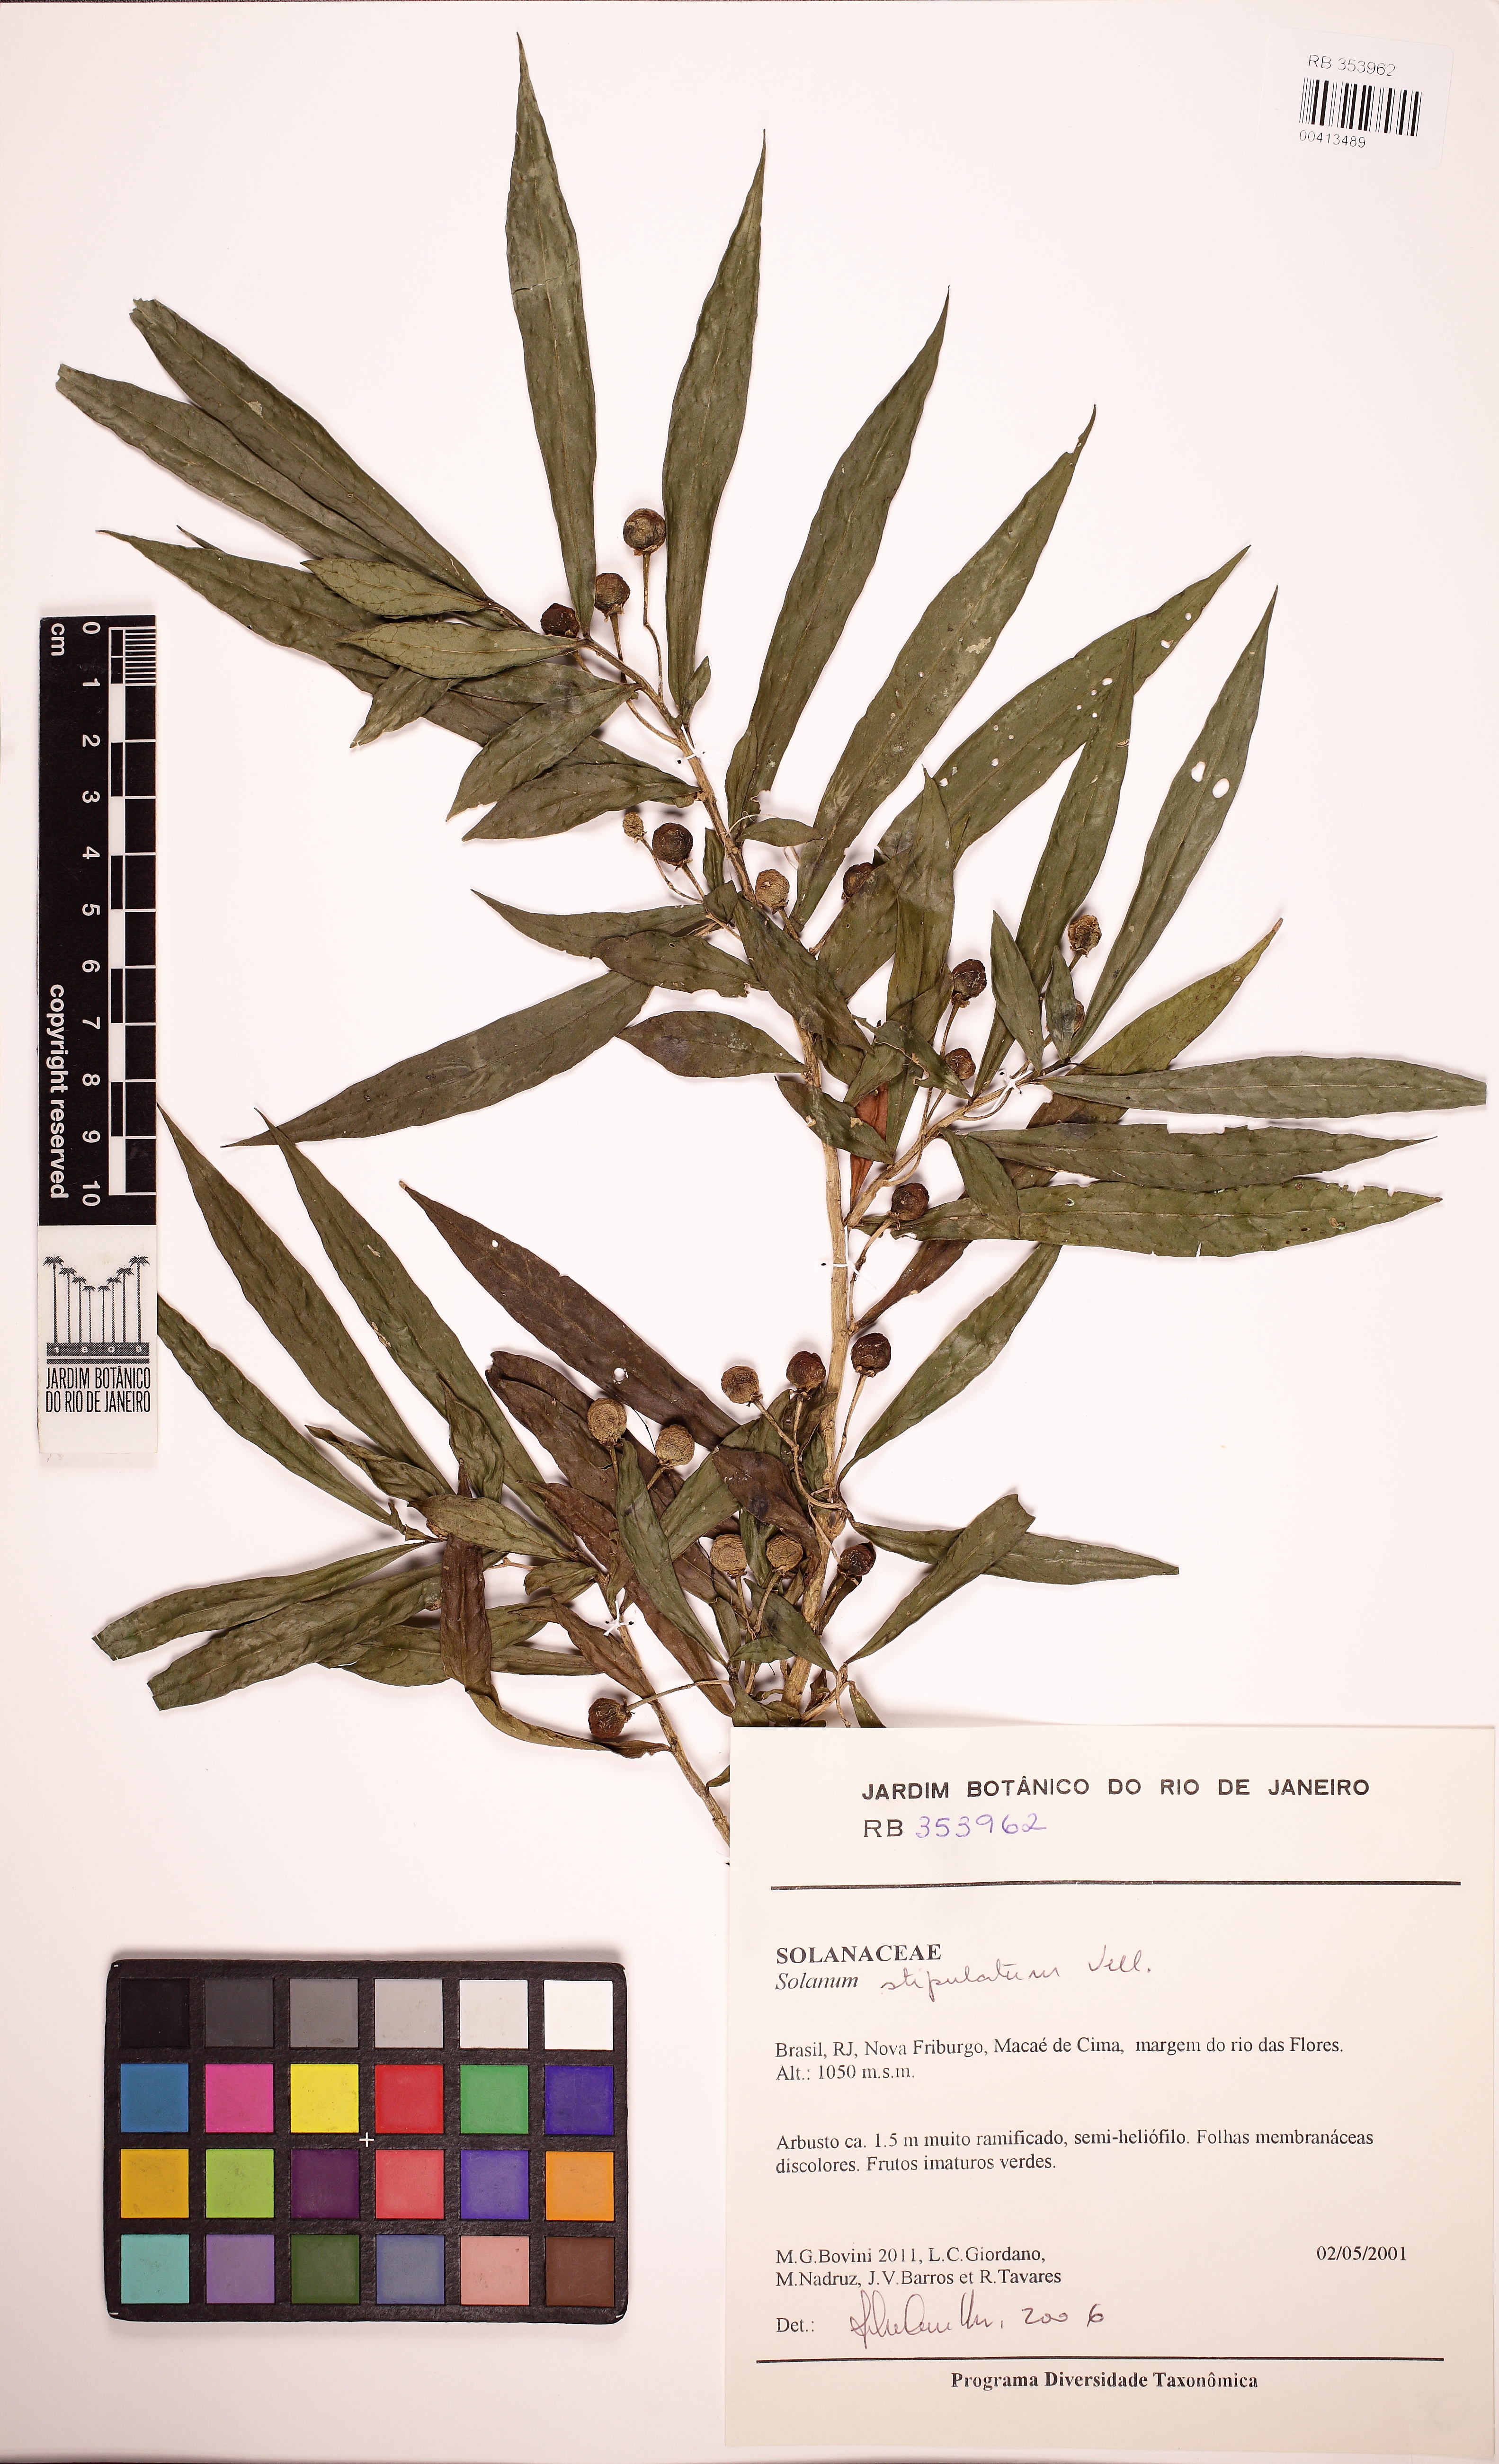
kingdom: Plantae
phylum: Tracheophyta
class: Magnoliopsida
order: Solanales
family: Solanaceae
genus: Solanum
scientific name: Solanum stipulatum
